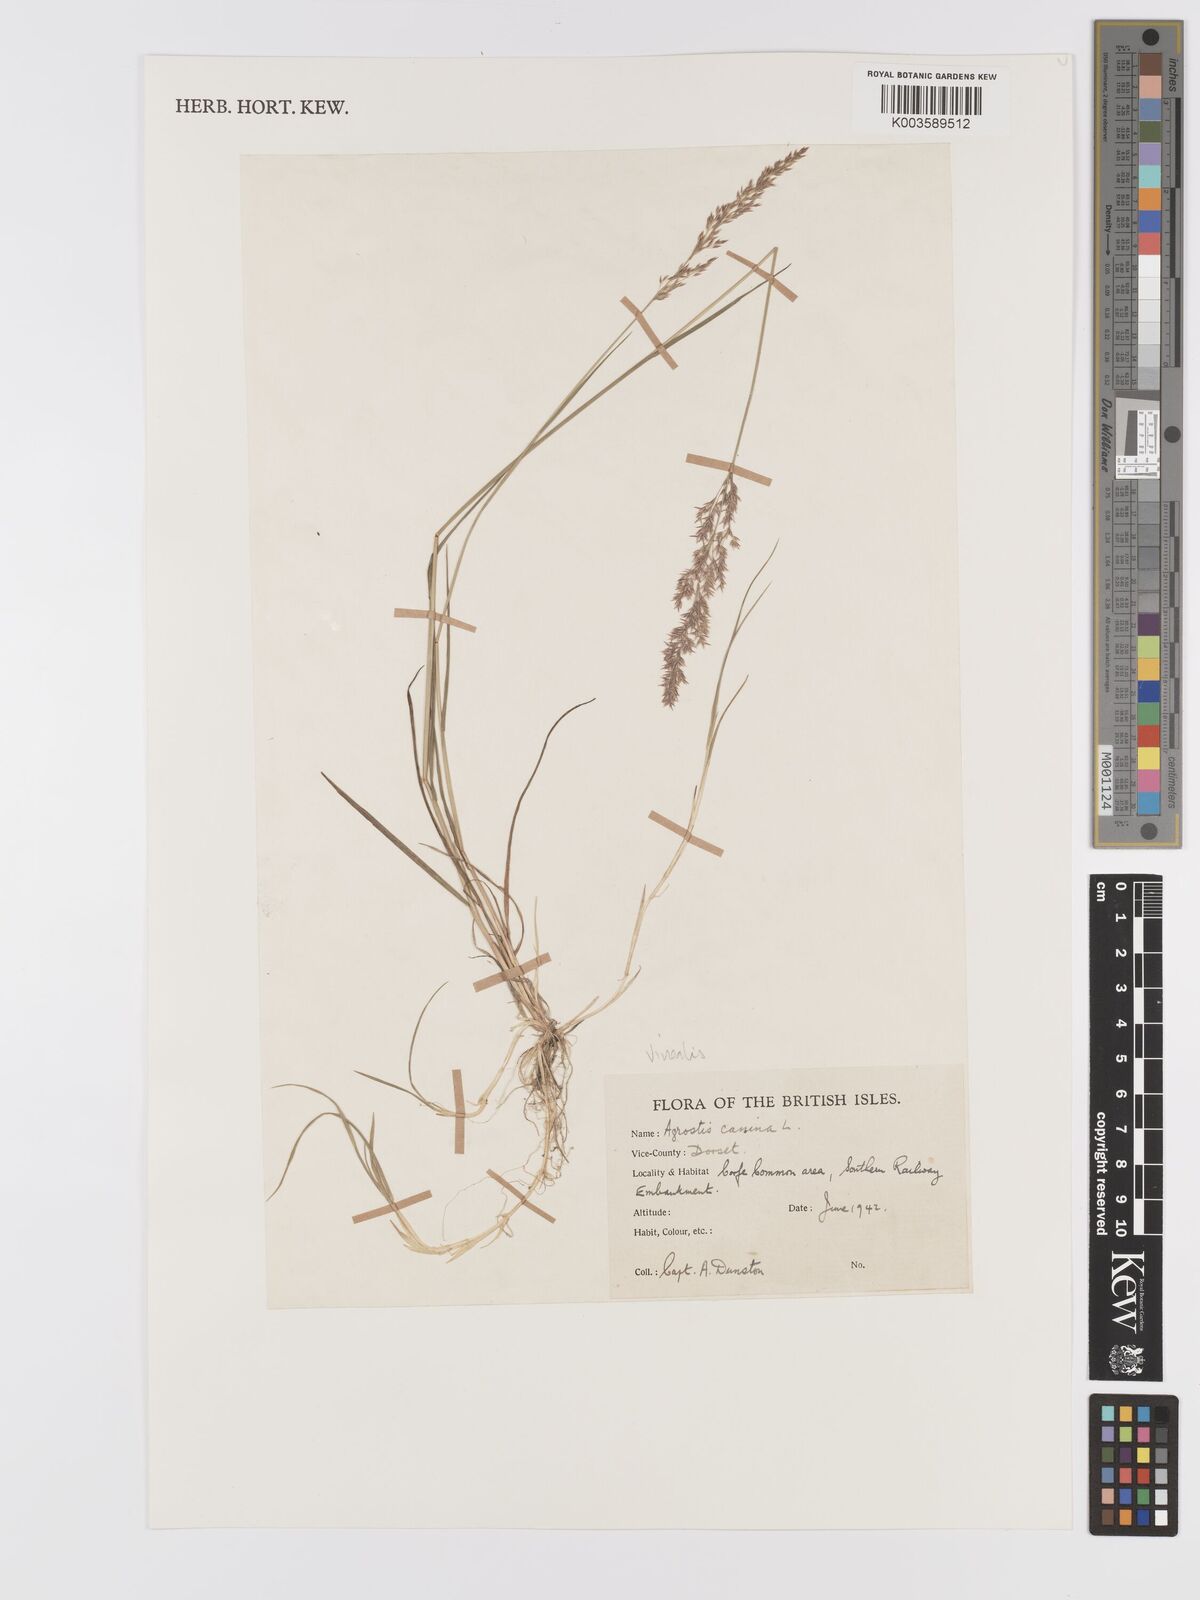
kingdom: Plantae
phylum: Tracheophyta
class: Liliopsida
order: Poales
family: Poaceae
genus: Agrostis
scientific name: Agrostis
